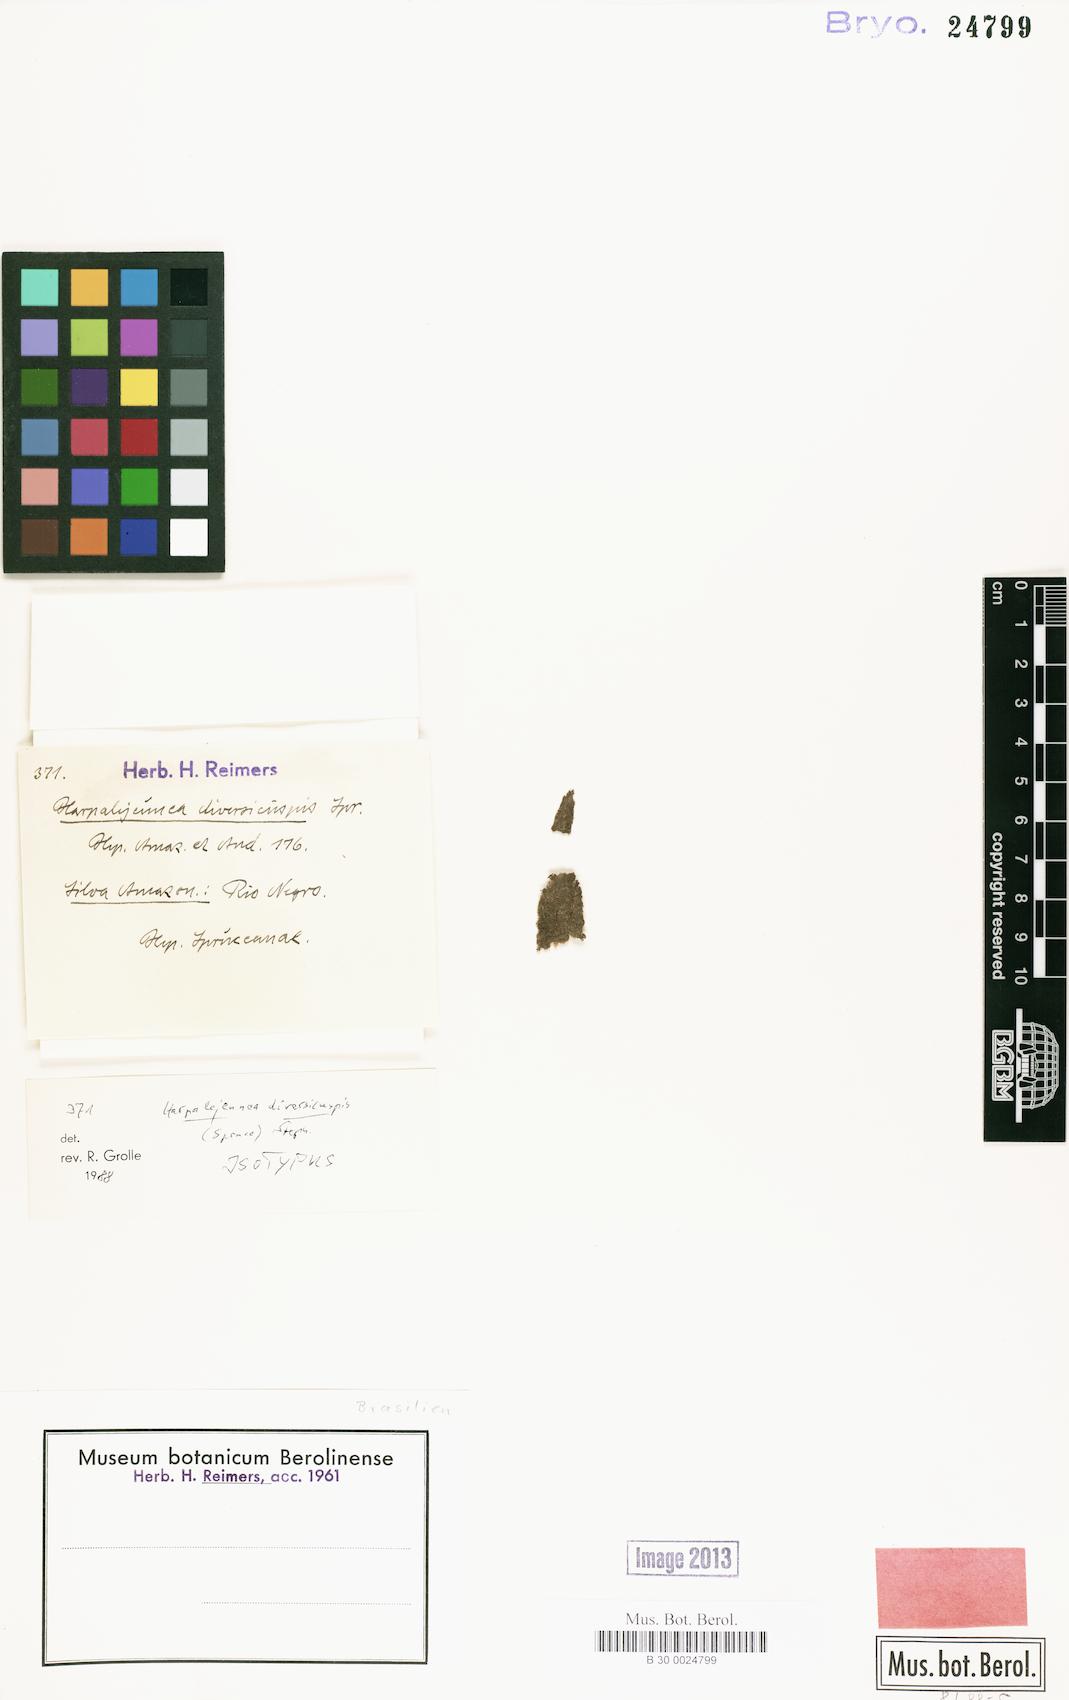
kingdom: Plantae
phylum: Marchantiophyta
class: Jungermanniopsida
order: Porellales
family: Lejeuneaceae
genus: Lejeunea
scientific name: Lejeunea acanthogona
